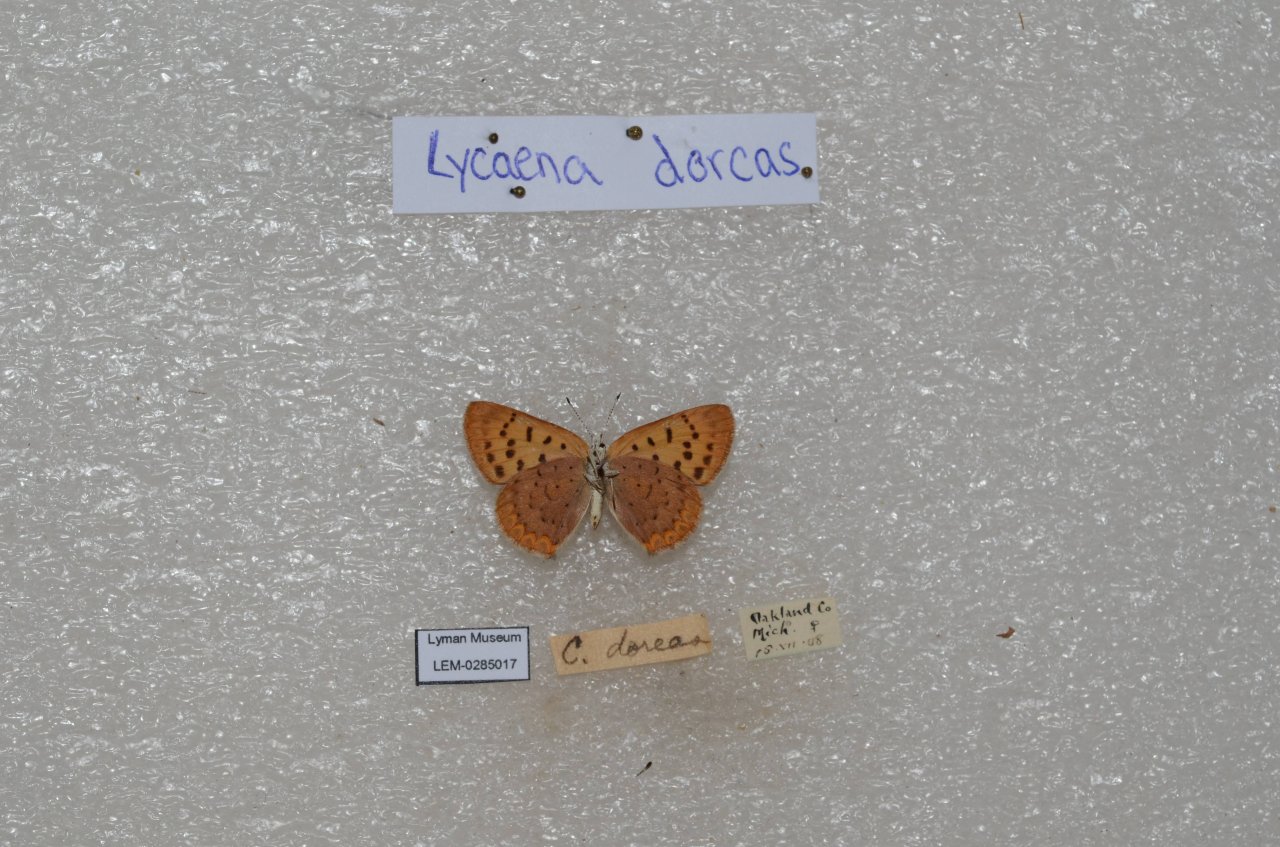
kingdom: Animalia
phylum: Arthropoda
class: Insecta
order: Lepidoptera
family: Lycaenidae
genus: Epidemia
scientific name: Epidemia dorcas
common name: Dorcas Copper
